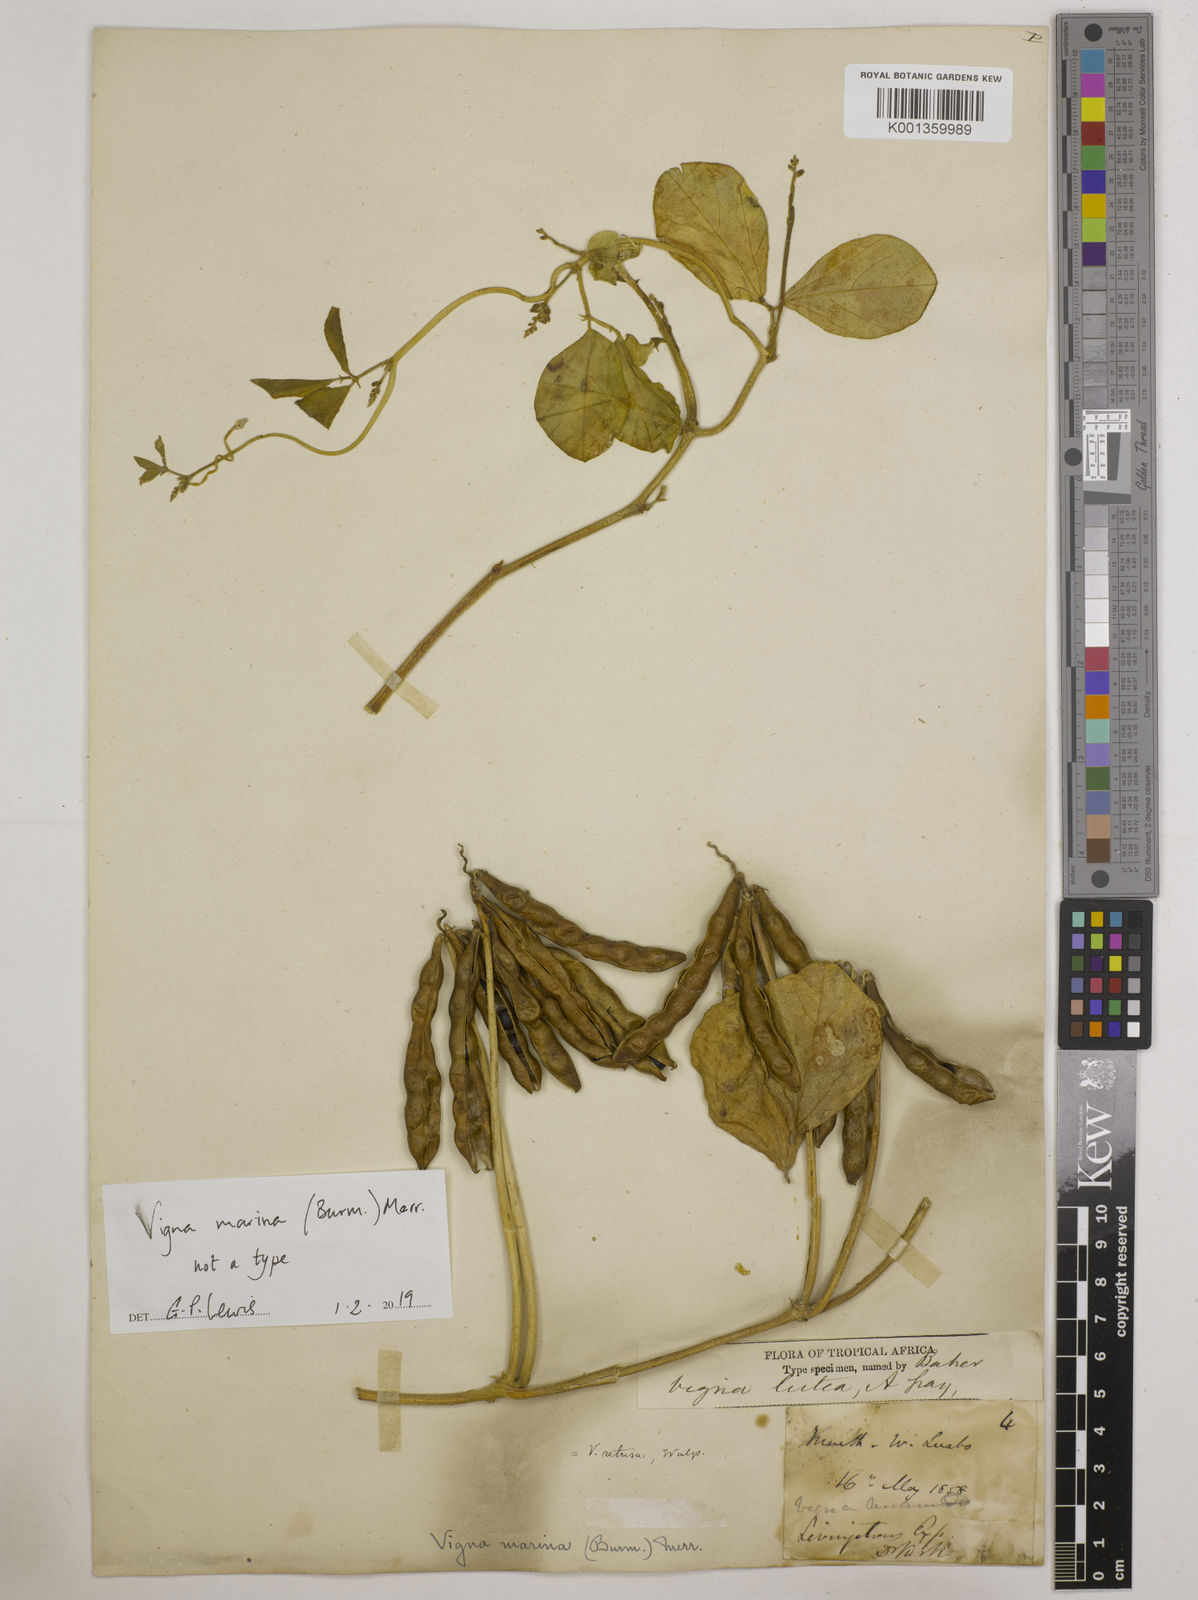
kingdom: Plantae
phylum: Tracheophyta
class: Magnoliopsida
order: Fabales
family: Fabaceae
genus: Vigna
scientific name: Vigna marina
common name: Dune-bean
